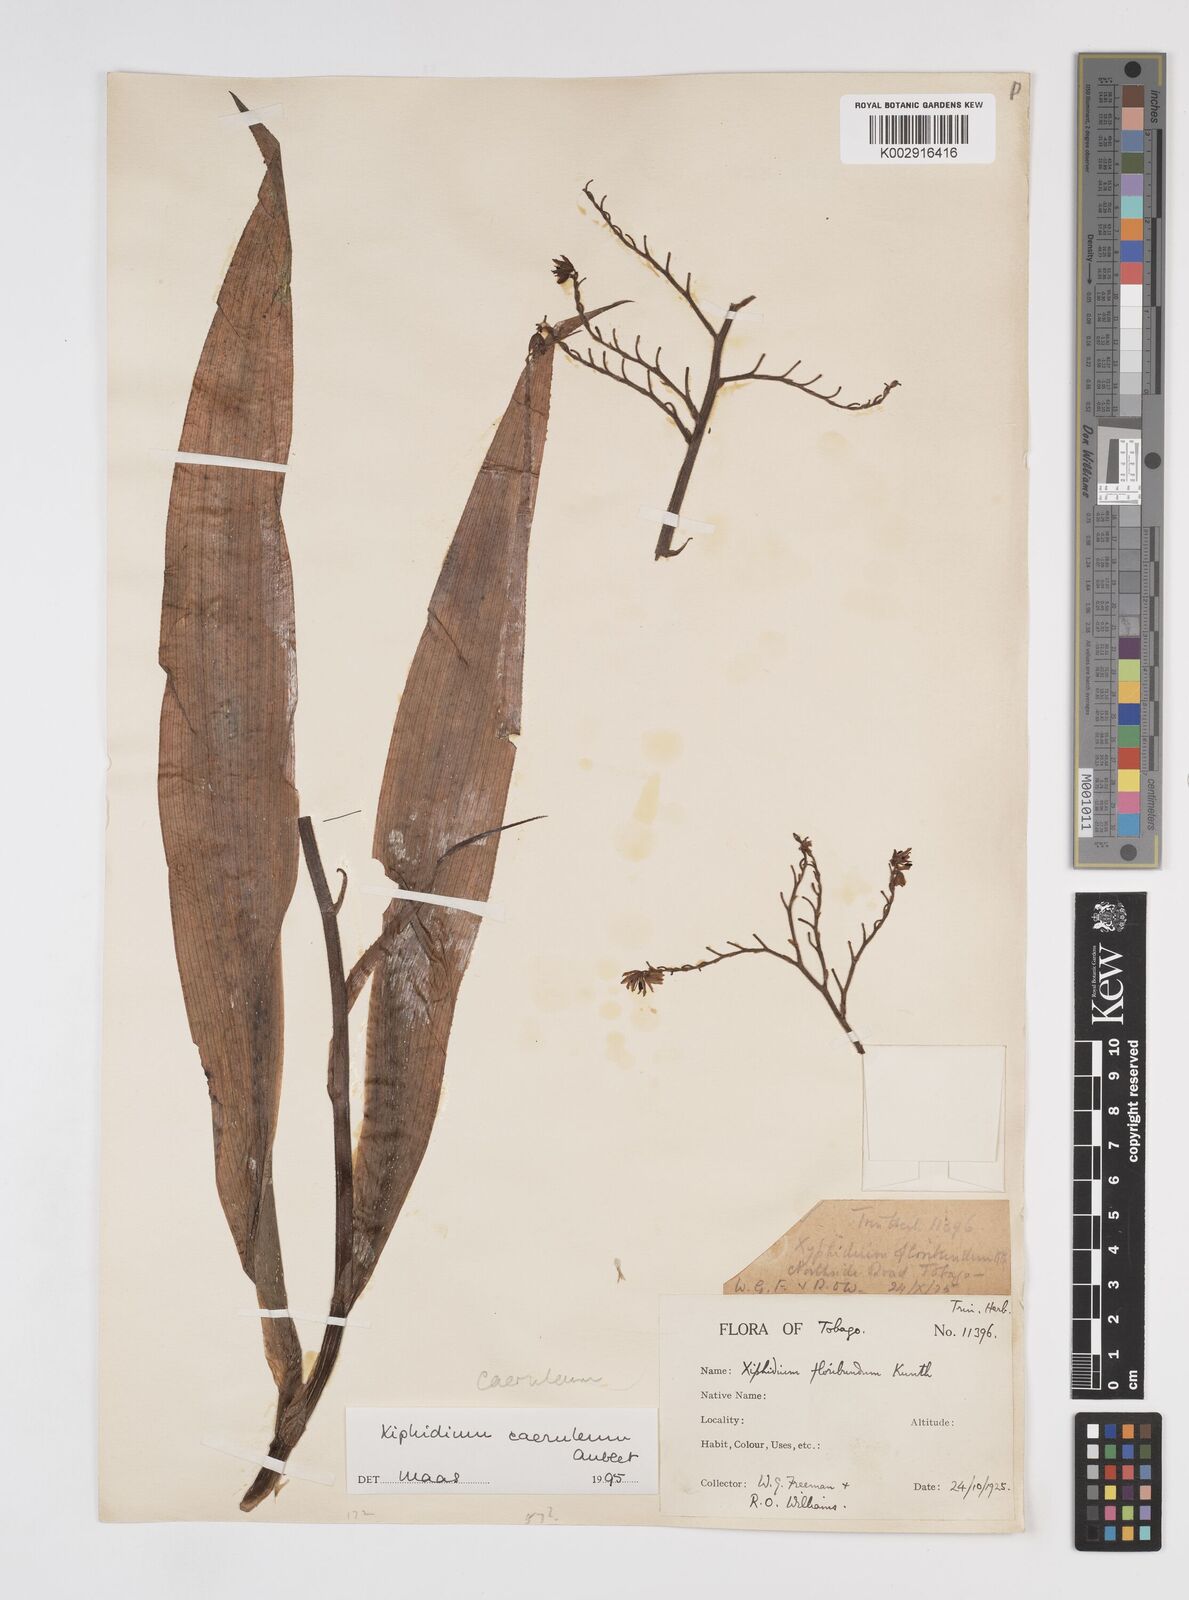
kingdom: Plantae
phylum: Tracheophyta
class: Liliopsida
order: Commelinales
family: Haemodoraceae
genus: Xiphidium
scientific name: Xiphidium caeruleum
